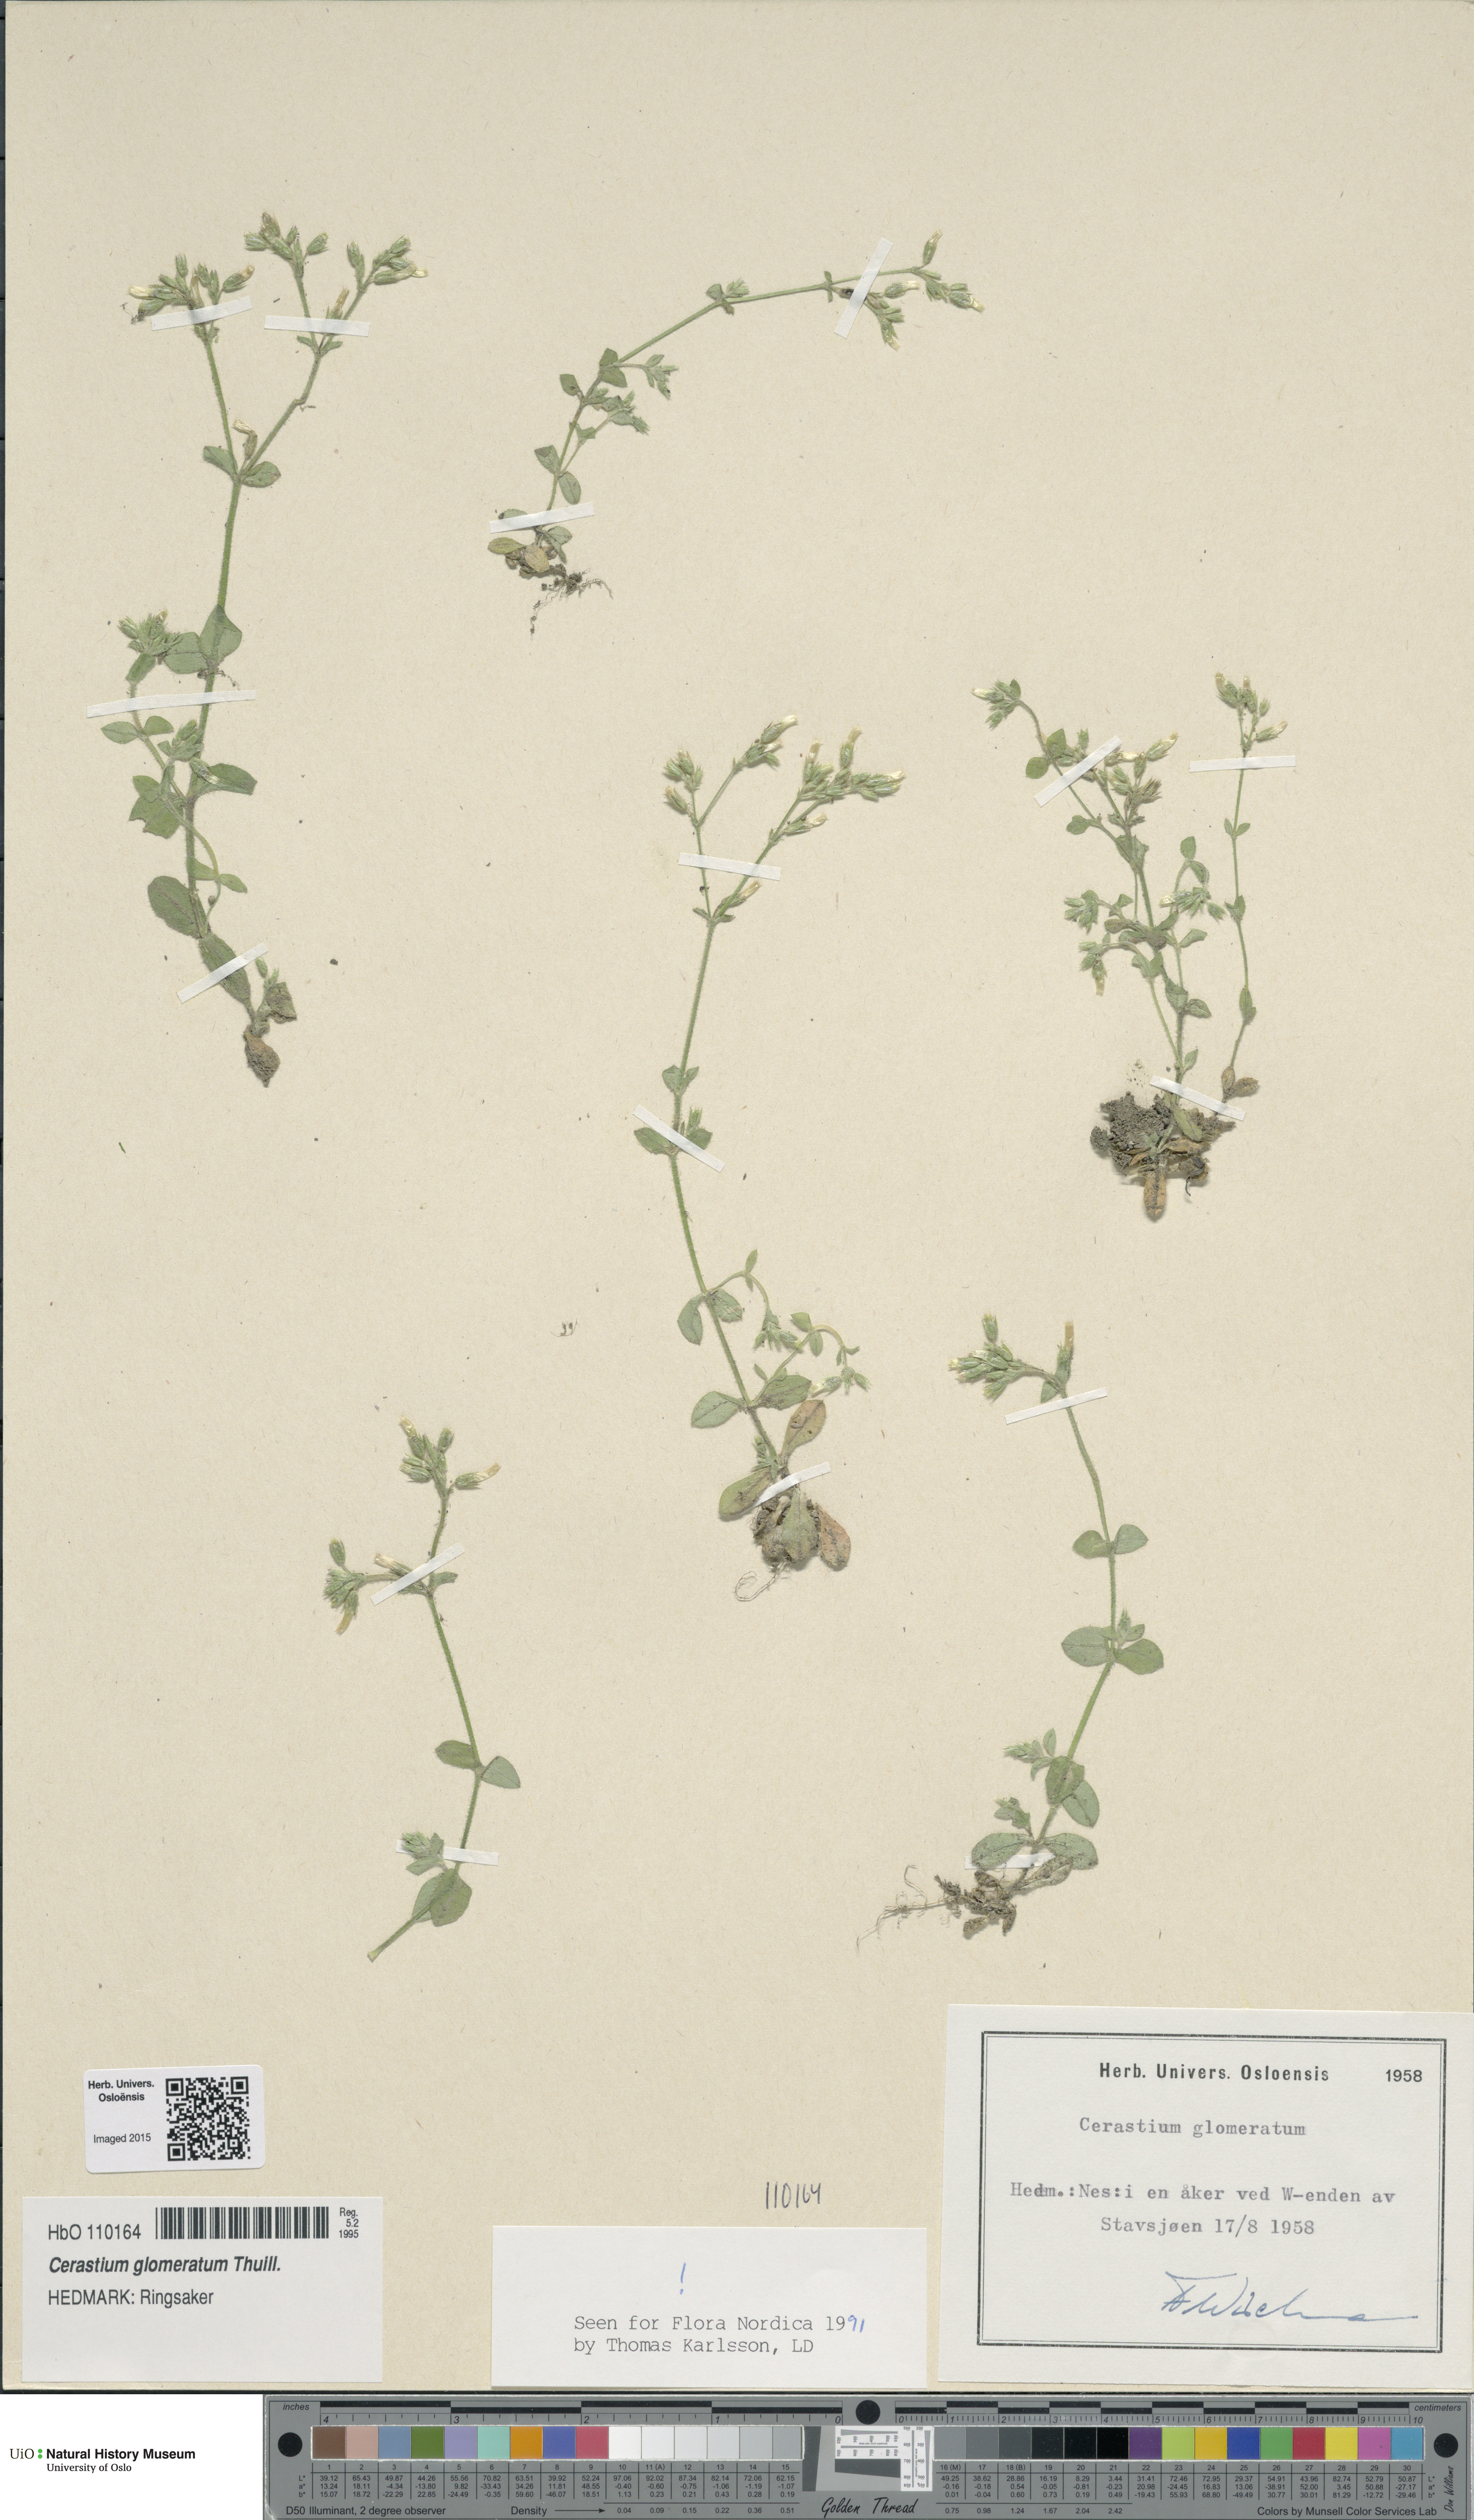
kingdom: Plantae
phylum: Tracheophyta
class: Magnoliopsida
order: Caryophyllales
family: Caryophyllaceae
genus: Cerastium
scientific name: Cerastium glomeratum
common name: Sticky chickweed
